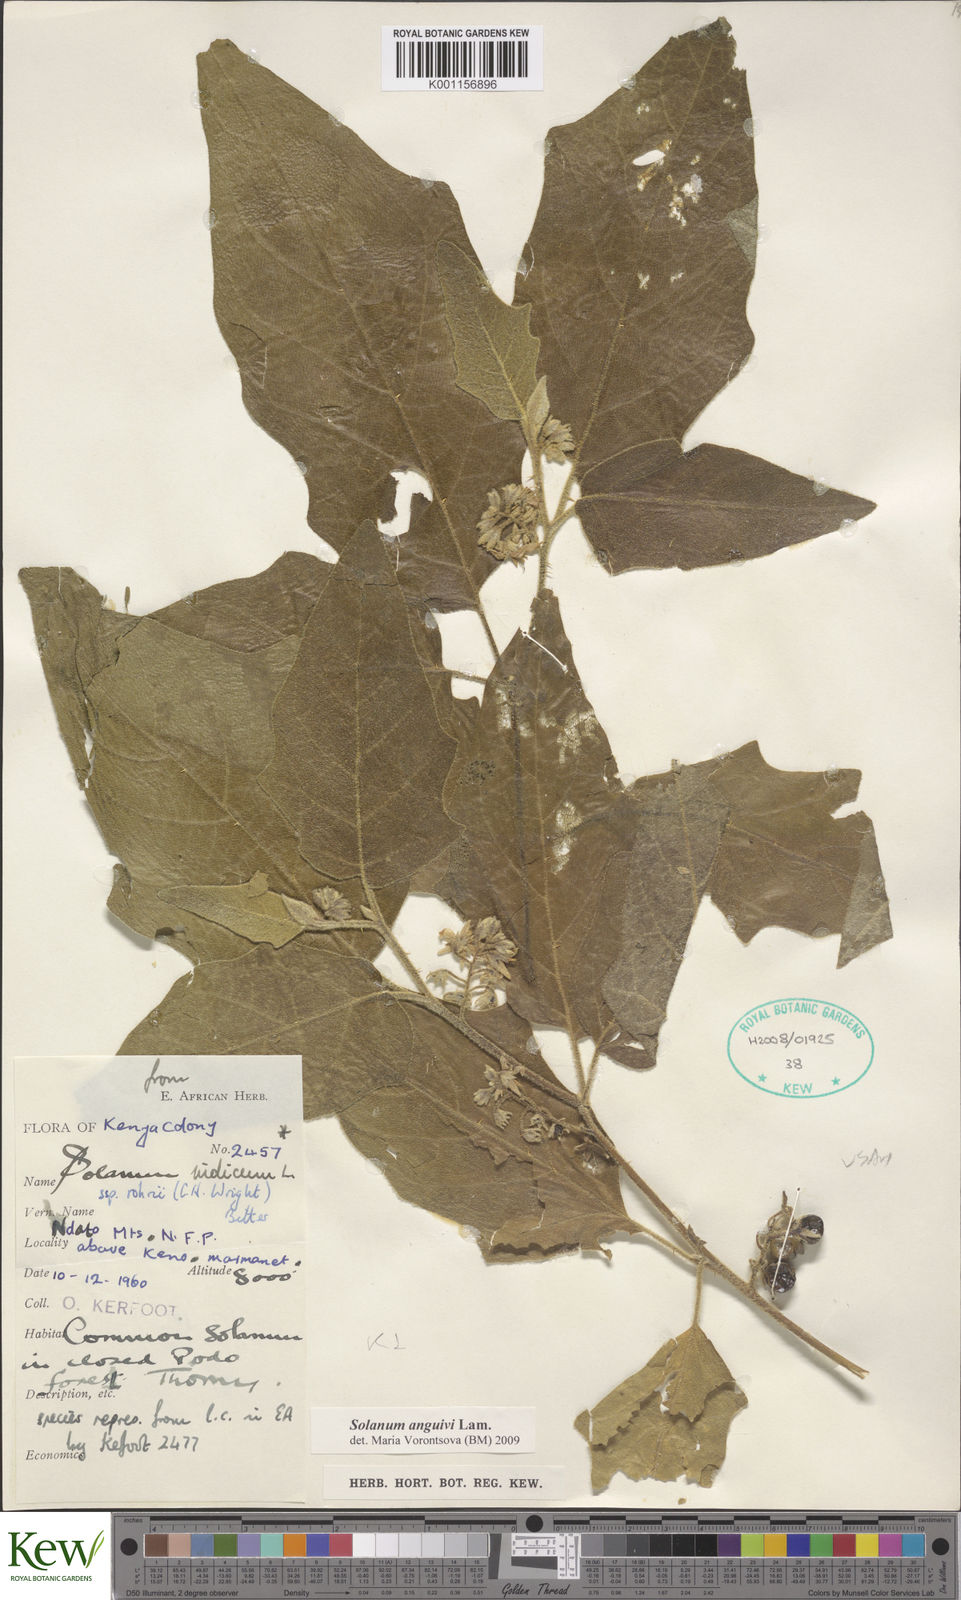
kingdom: Plantae
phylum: Tracheophyta
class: Magnoliopsida
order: Solanales
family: Solanaceae
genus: Solanum
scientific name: Solanum anguivi
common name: Forest bitterberry
